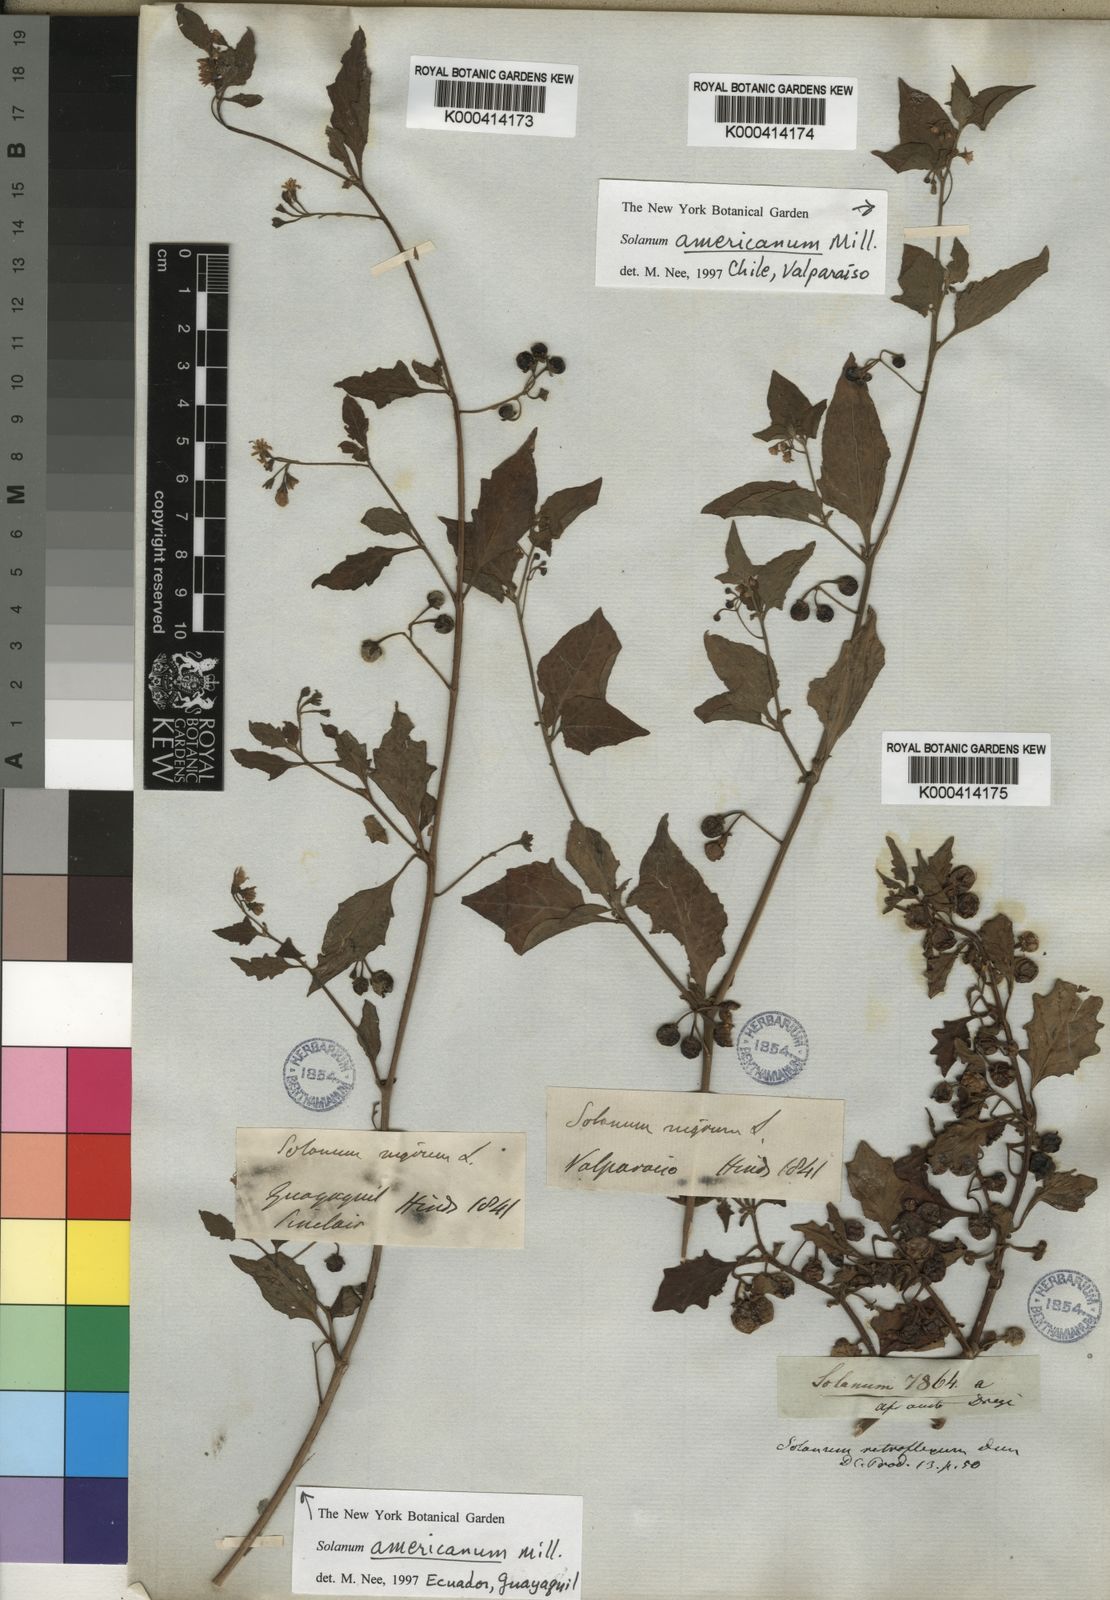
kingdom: Plantae
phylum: Tracheophyta
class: Magnoliopsida
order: Solanales
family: Solanaceae
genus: Solanum
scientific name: Solanum retroflexum
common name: Wonderberry
